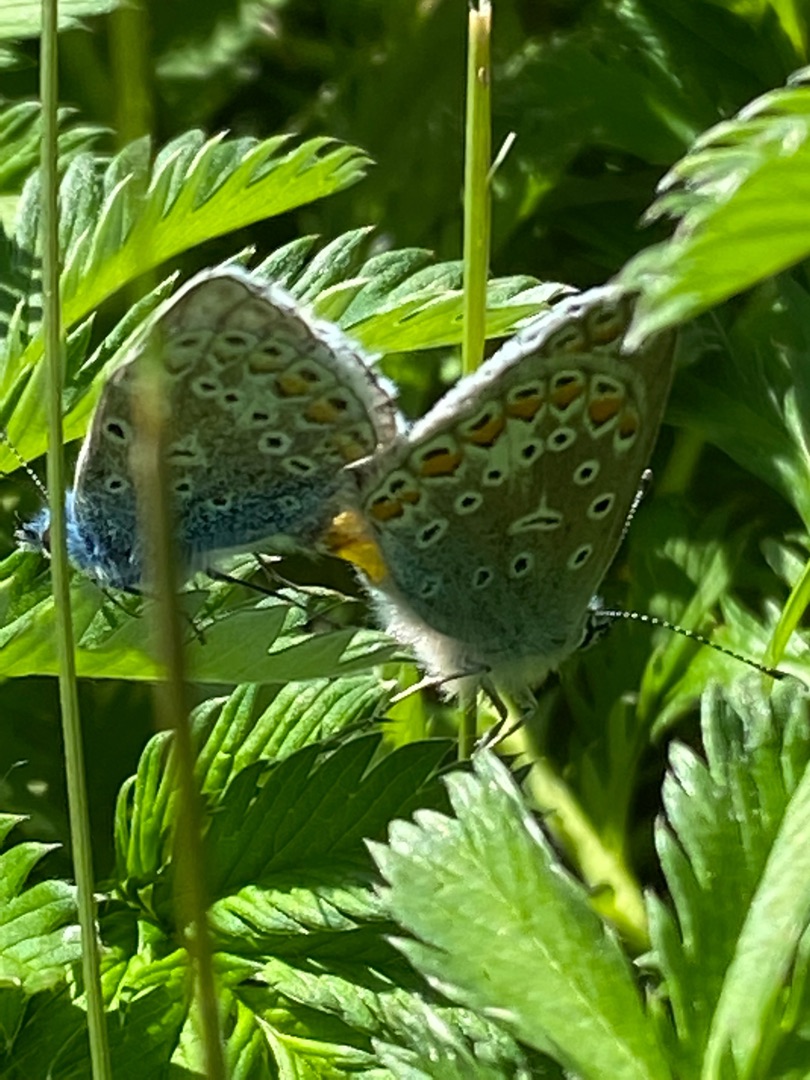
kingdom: Animalia
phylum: Arthropoda
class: Insecta
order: Lepidoptera
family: Lycaenidae
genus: Polyommatus
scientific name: Polyommatus icarus
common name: Almindelig blåfugl
